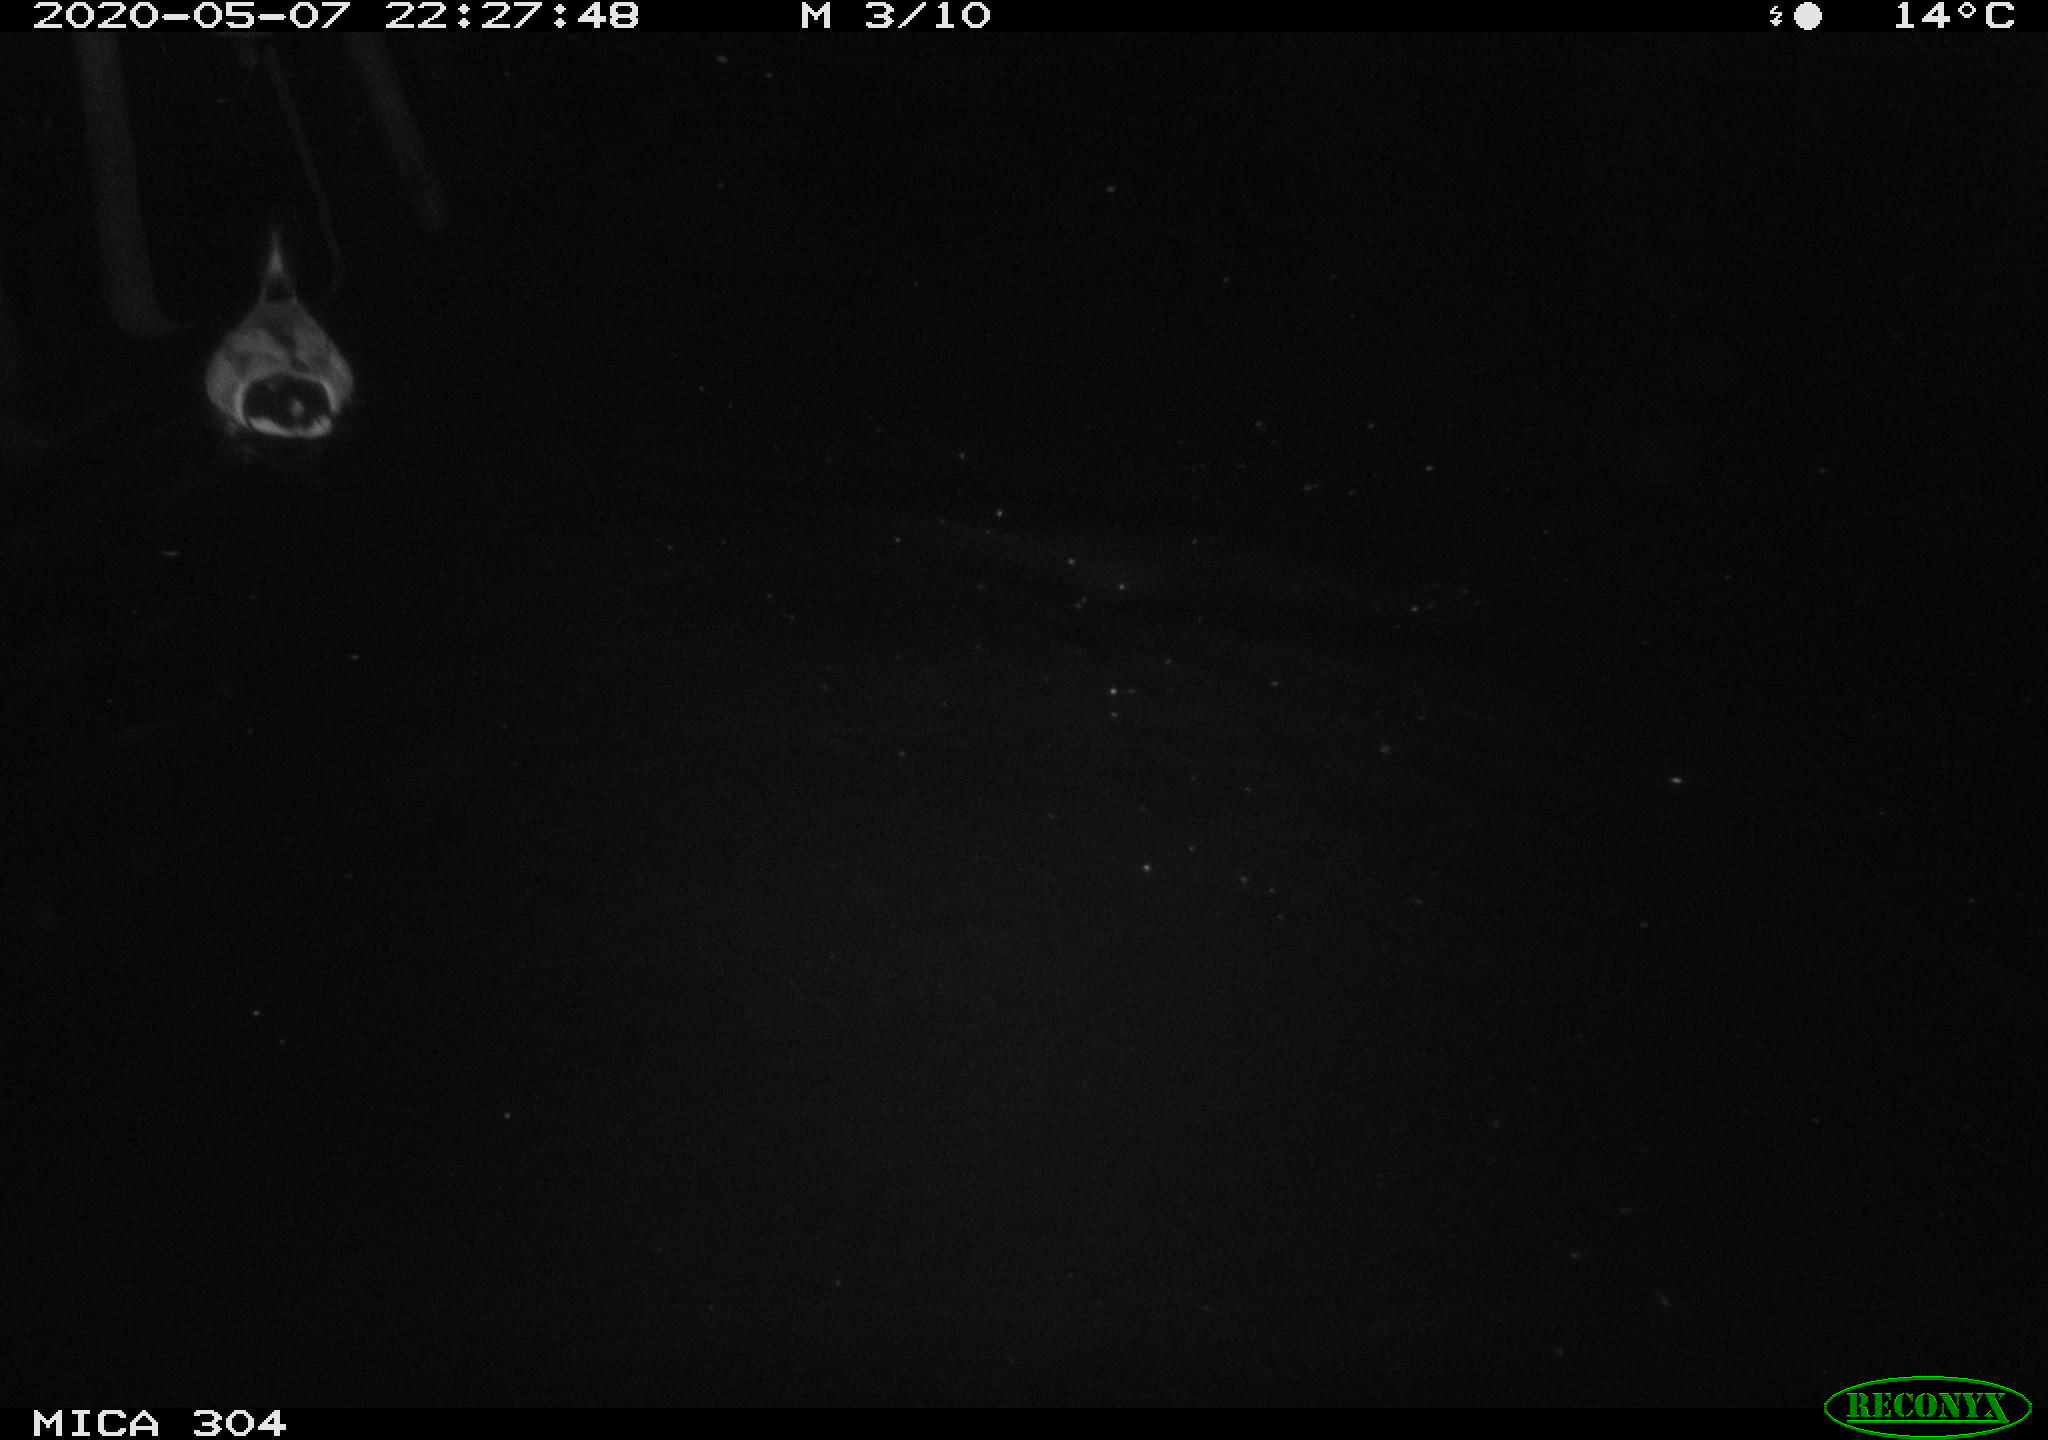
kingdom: Animalia
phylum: Chordata
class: Aves
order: Anseriformes
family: Anatidae
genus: Anas
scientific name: Anas platyrhynchos
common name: Mallard
